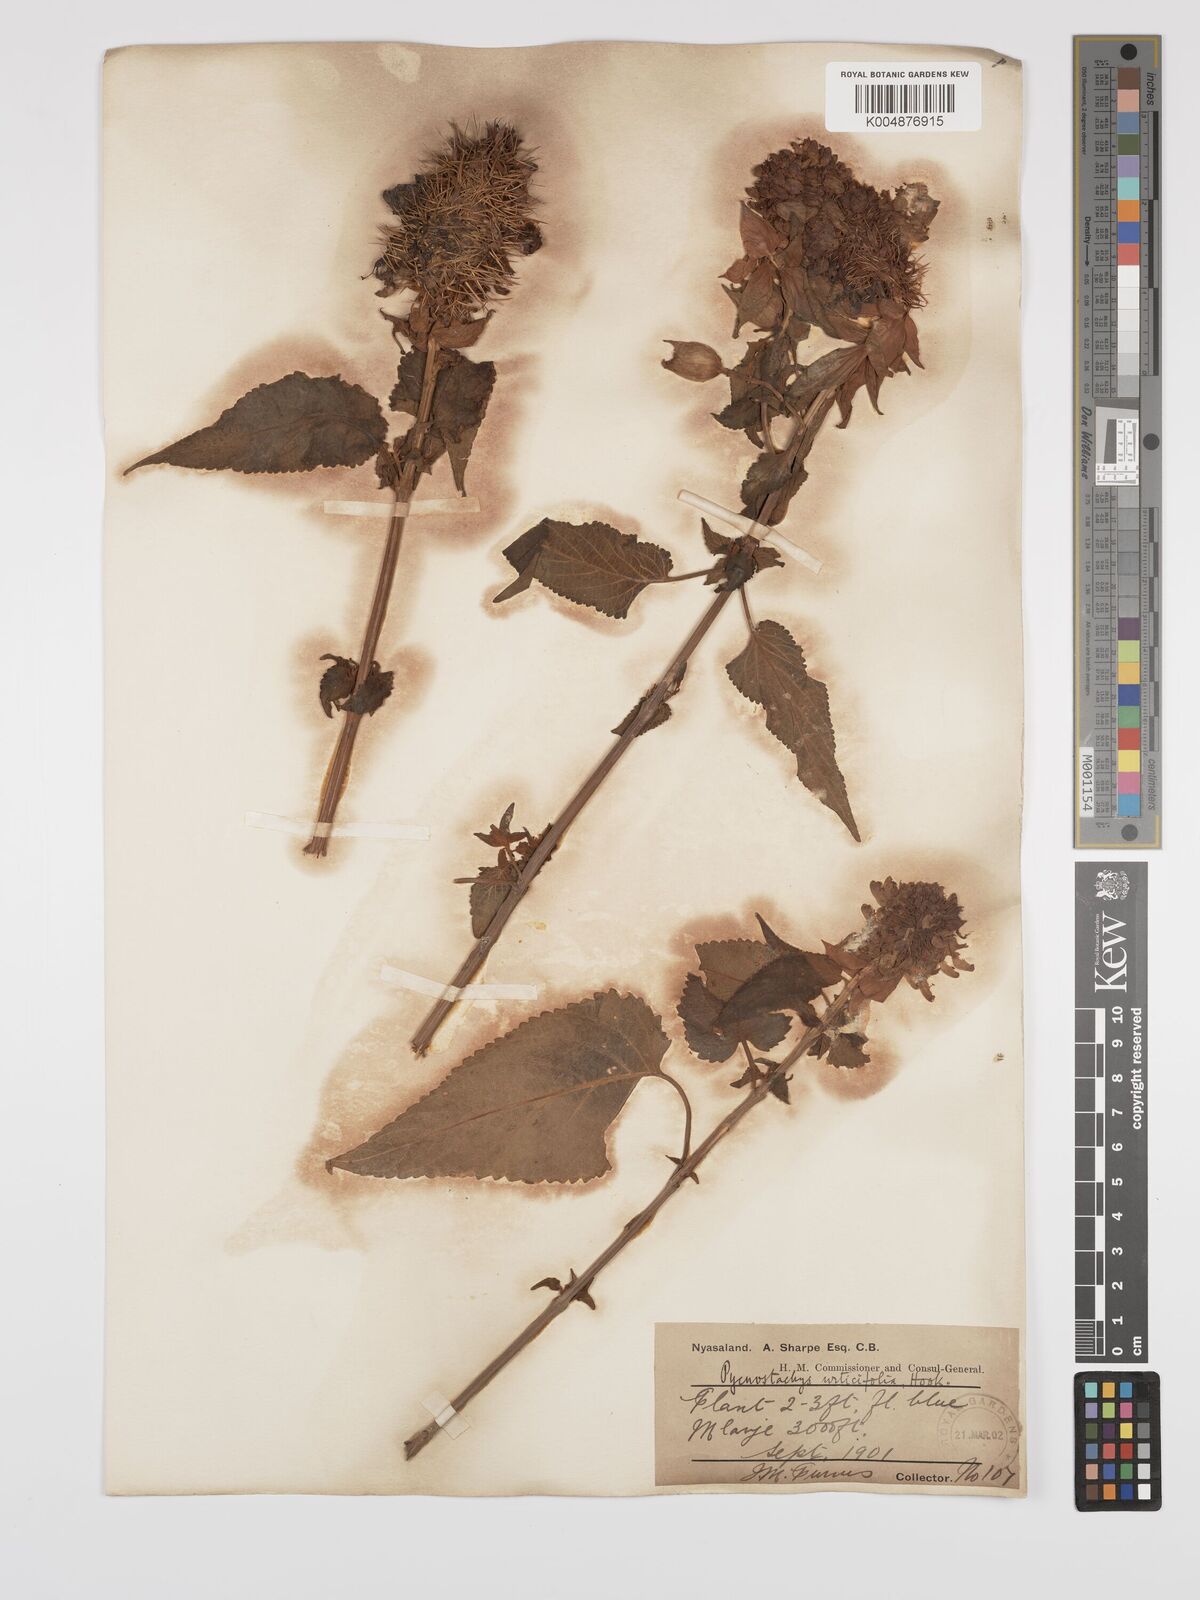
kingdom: Plantae
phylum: Tracheophyta
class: Magnoliopsida
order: Lamiales
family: Lamiaceae
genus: Coleus
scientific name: Coleus livingstonei
